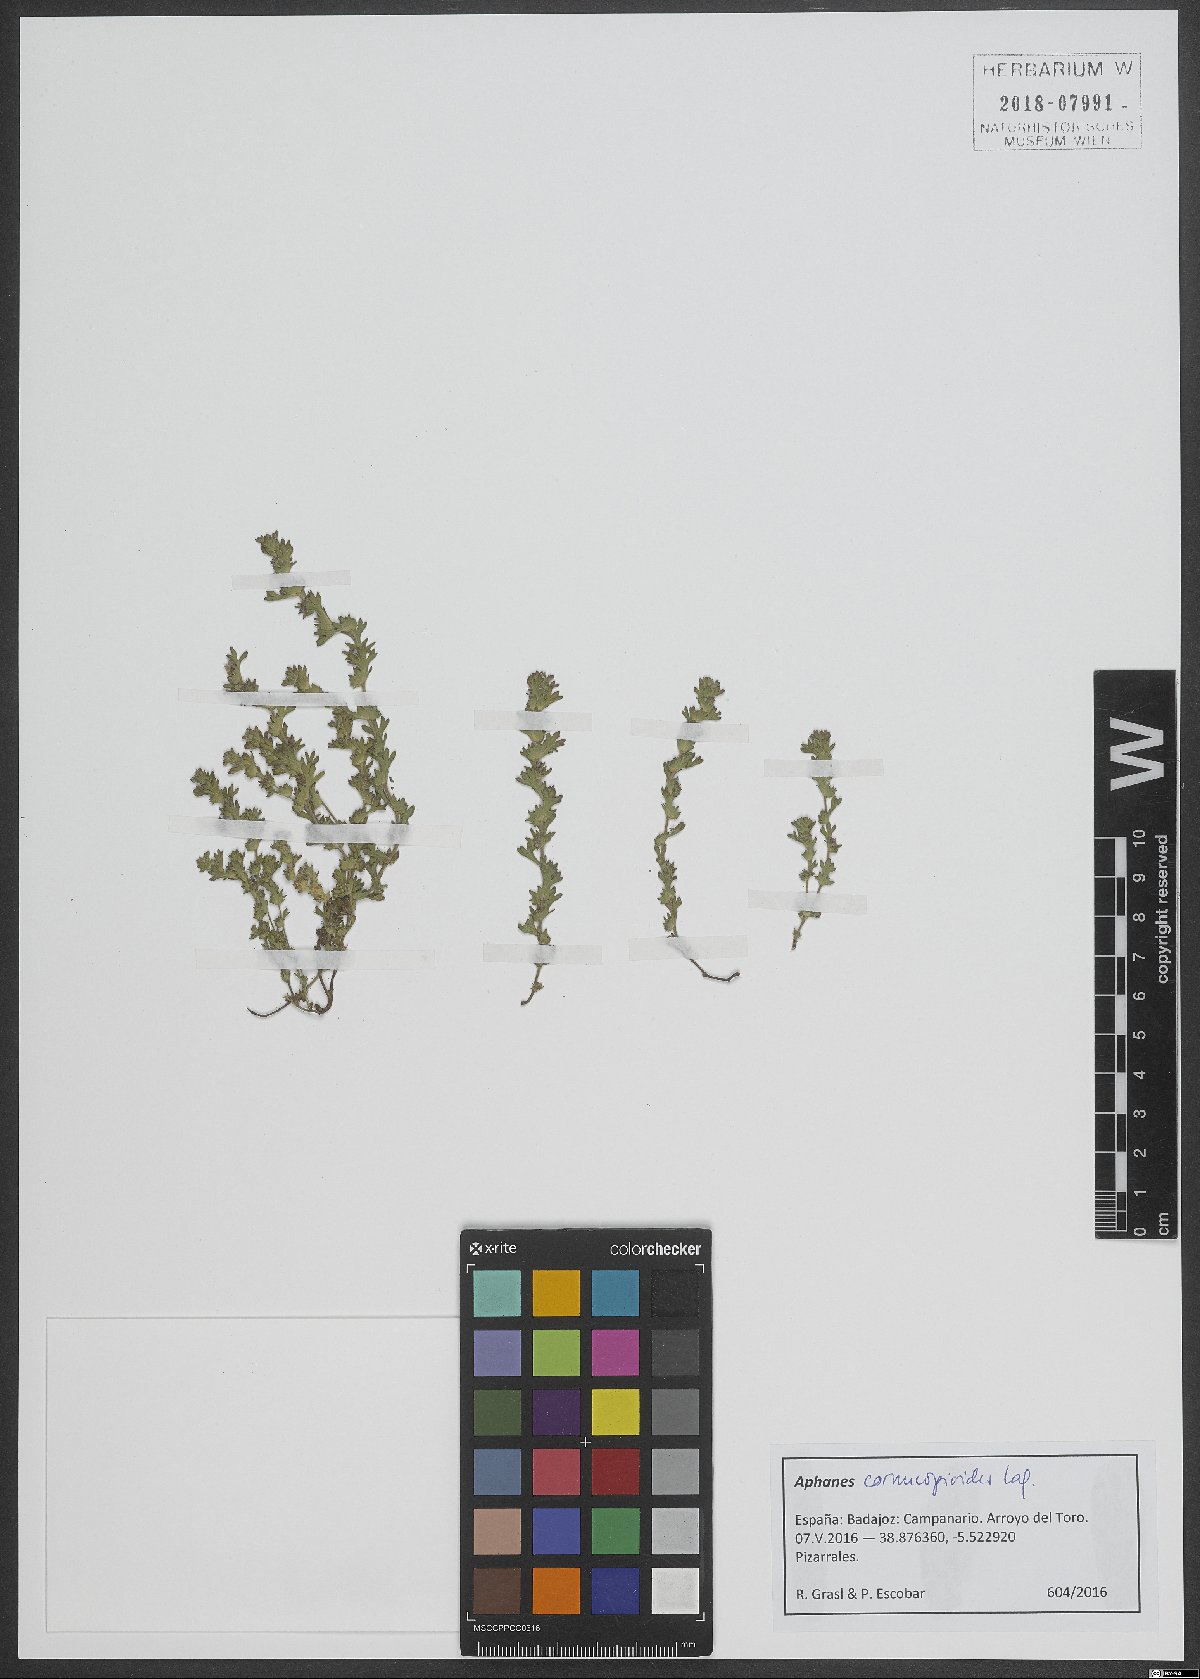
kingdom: Plantae
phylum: Tracheophyta
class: Magnoliopsida
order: Rosales
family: Rosaceae
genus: Aphanes
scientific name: Aphanes cornucopioides
